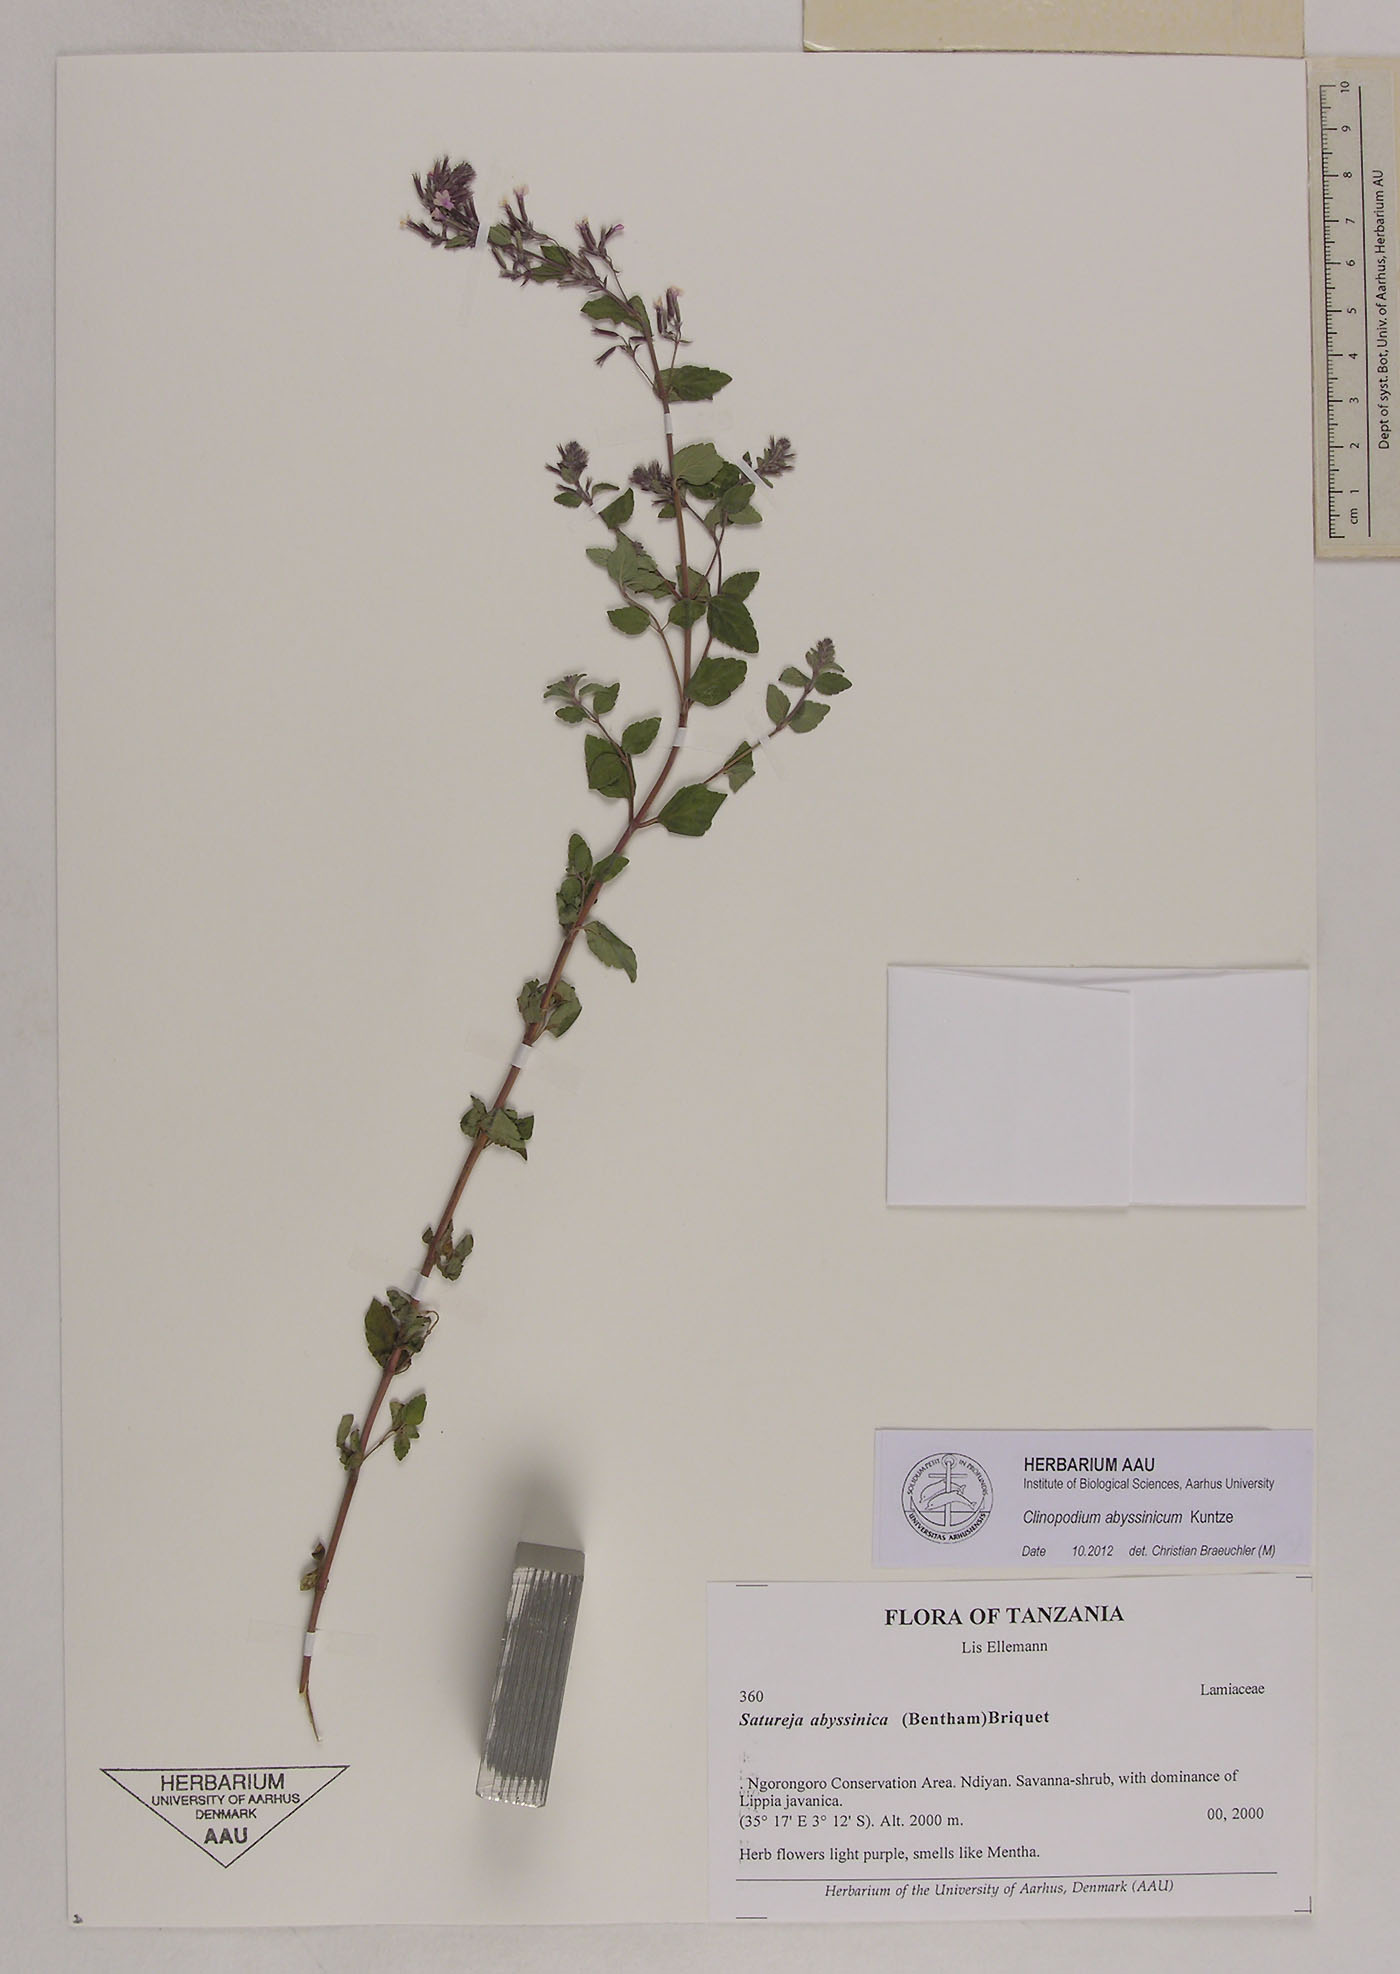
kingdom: Plantae
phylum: Tracheophyta
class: Magnoliopsida
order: Lamiales
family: Lamiaceae
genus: Clinopodium
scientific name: Clinopodium abyssinicum
